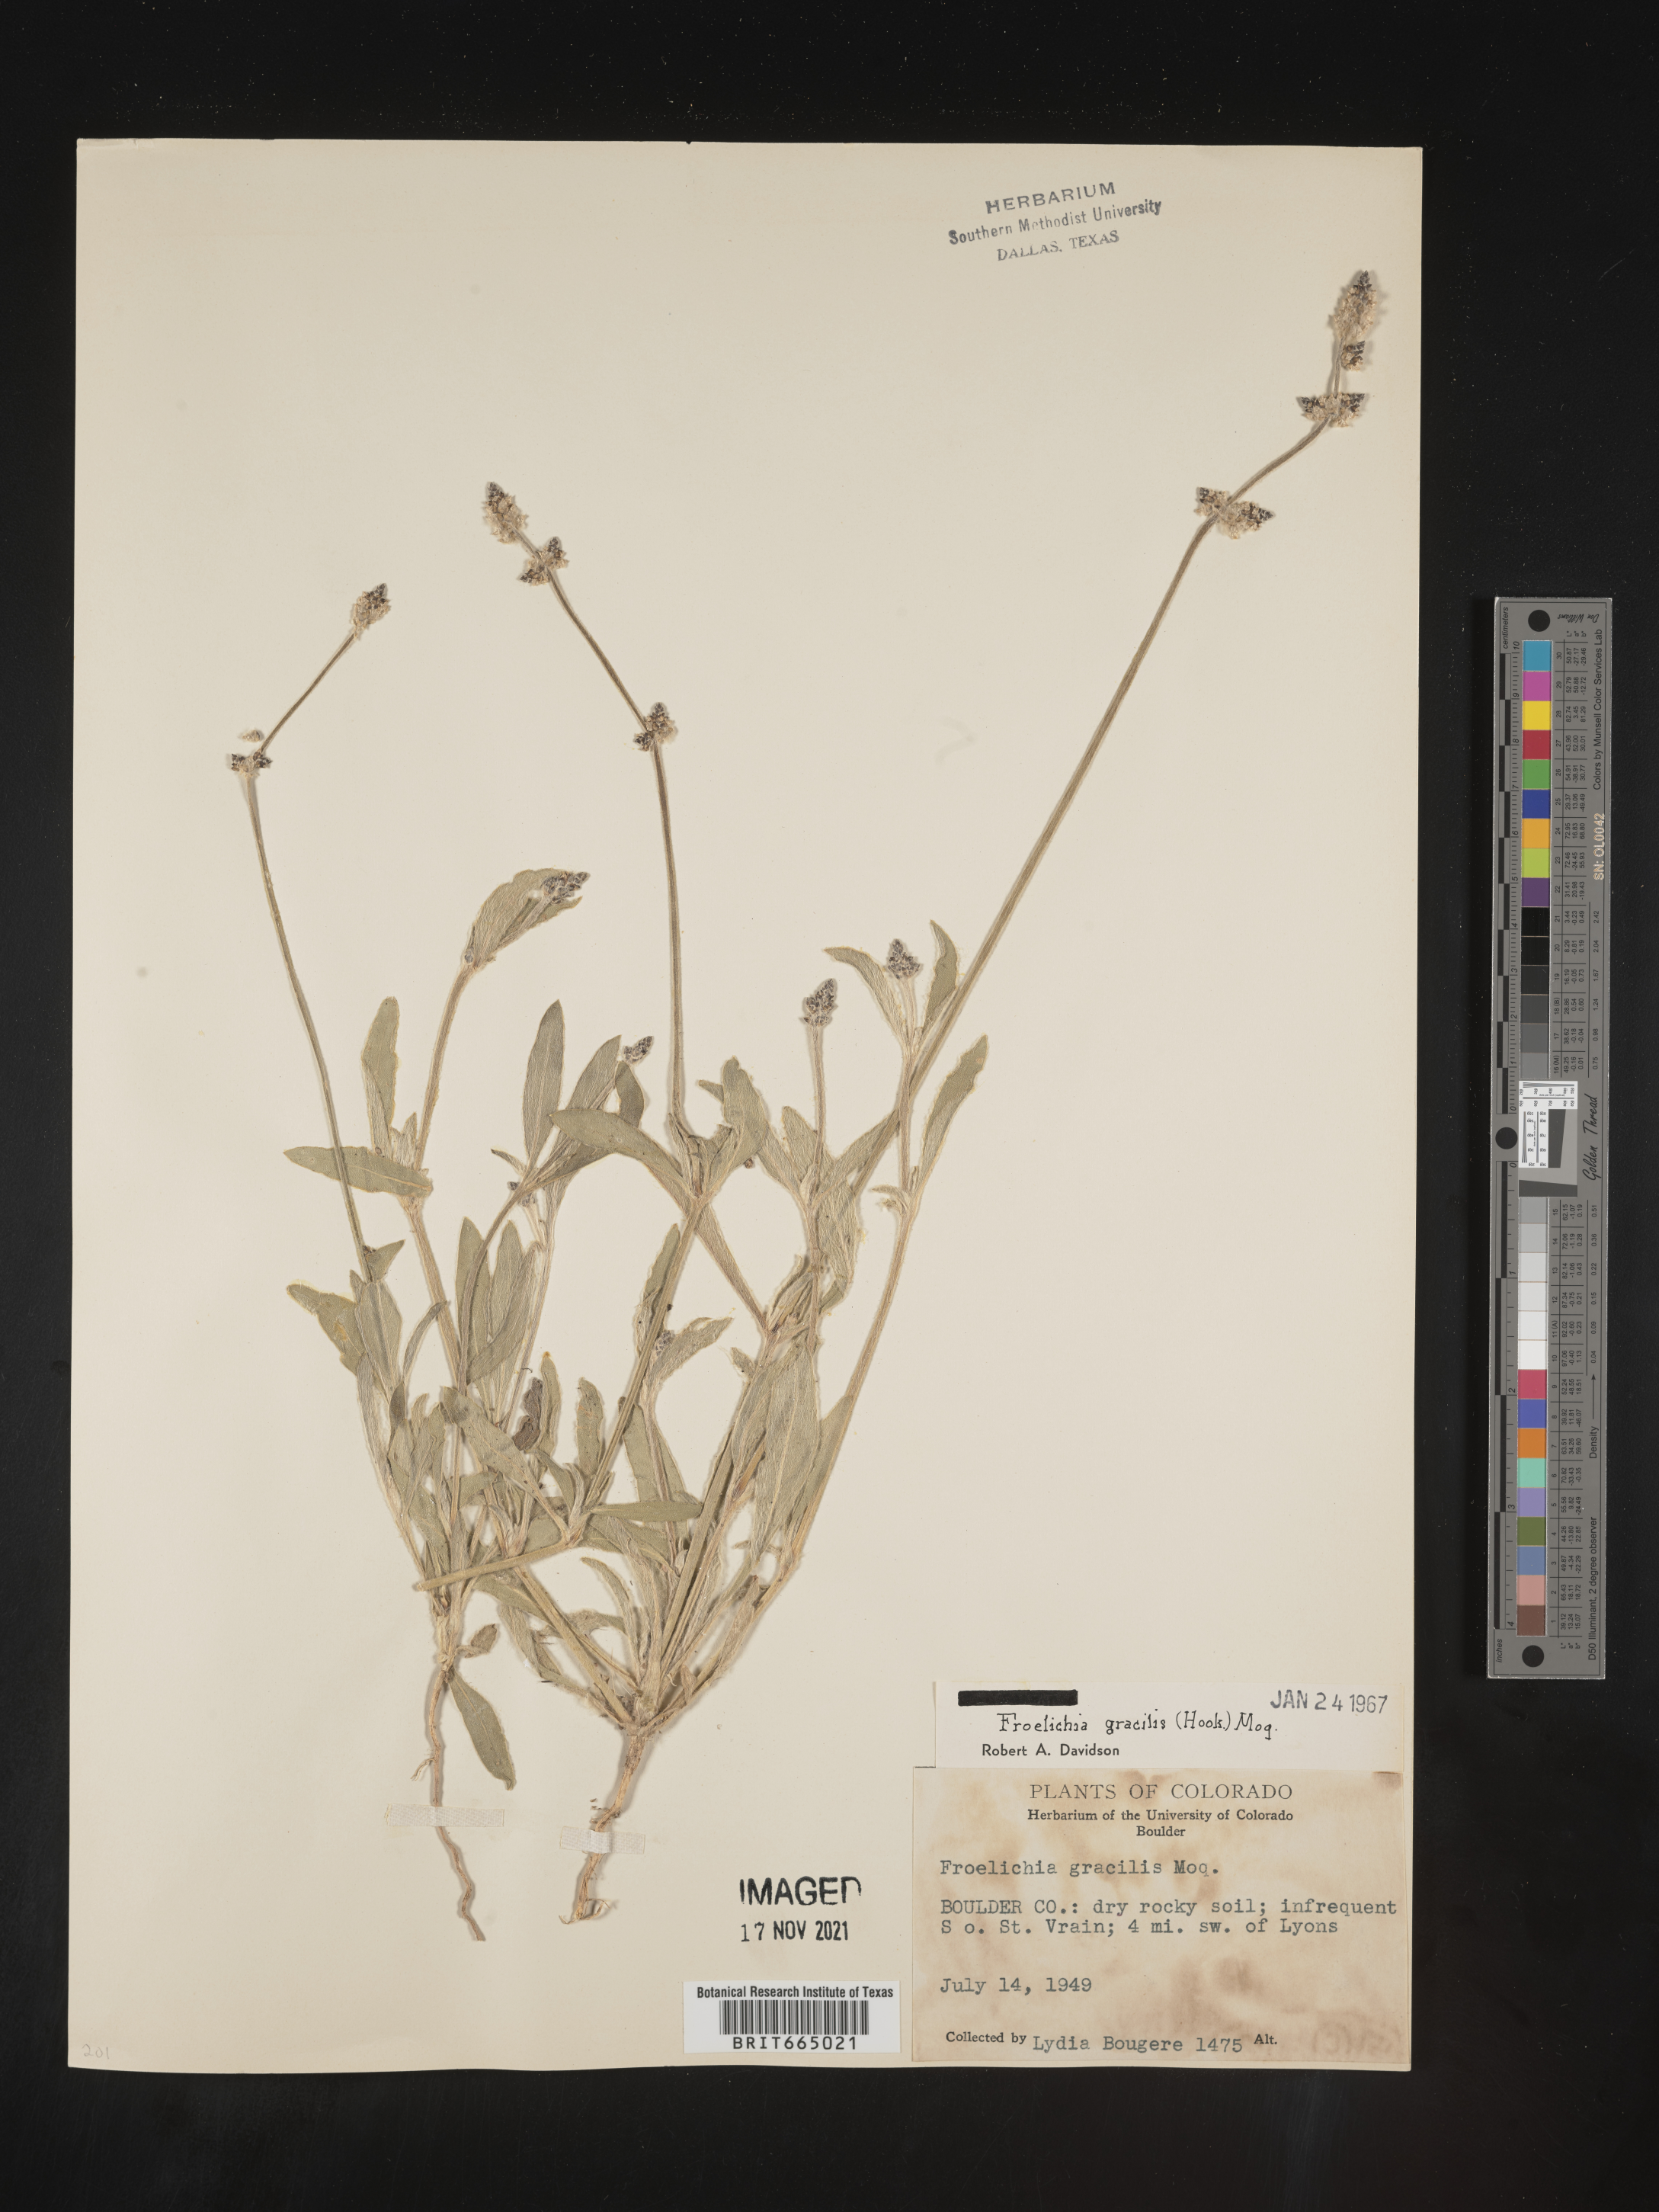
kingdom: Plantae
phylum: Tracheophyta
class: Magnoliopsida
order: Caryophyllales
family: Amaranthaceae
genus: Froelichia
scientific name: Froelichia gracilis
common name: Slender cottonweed
